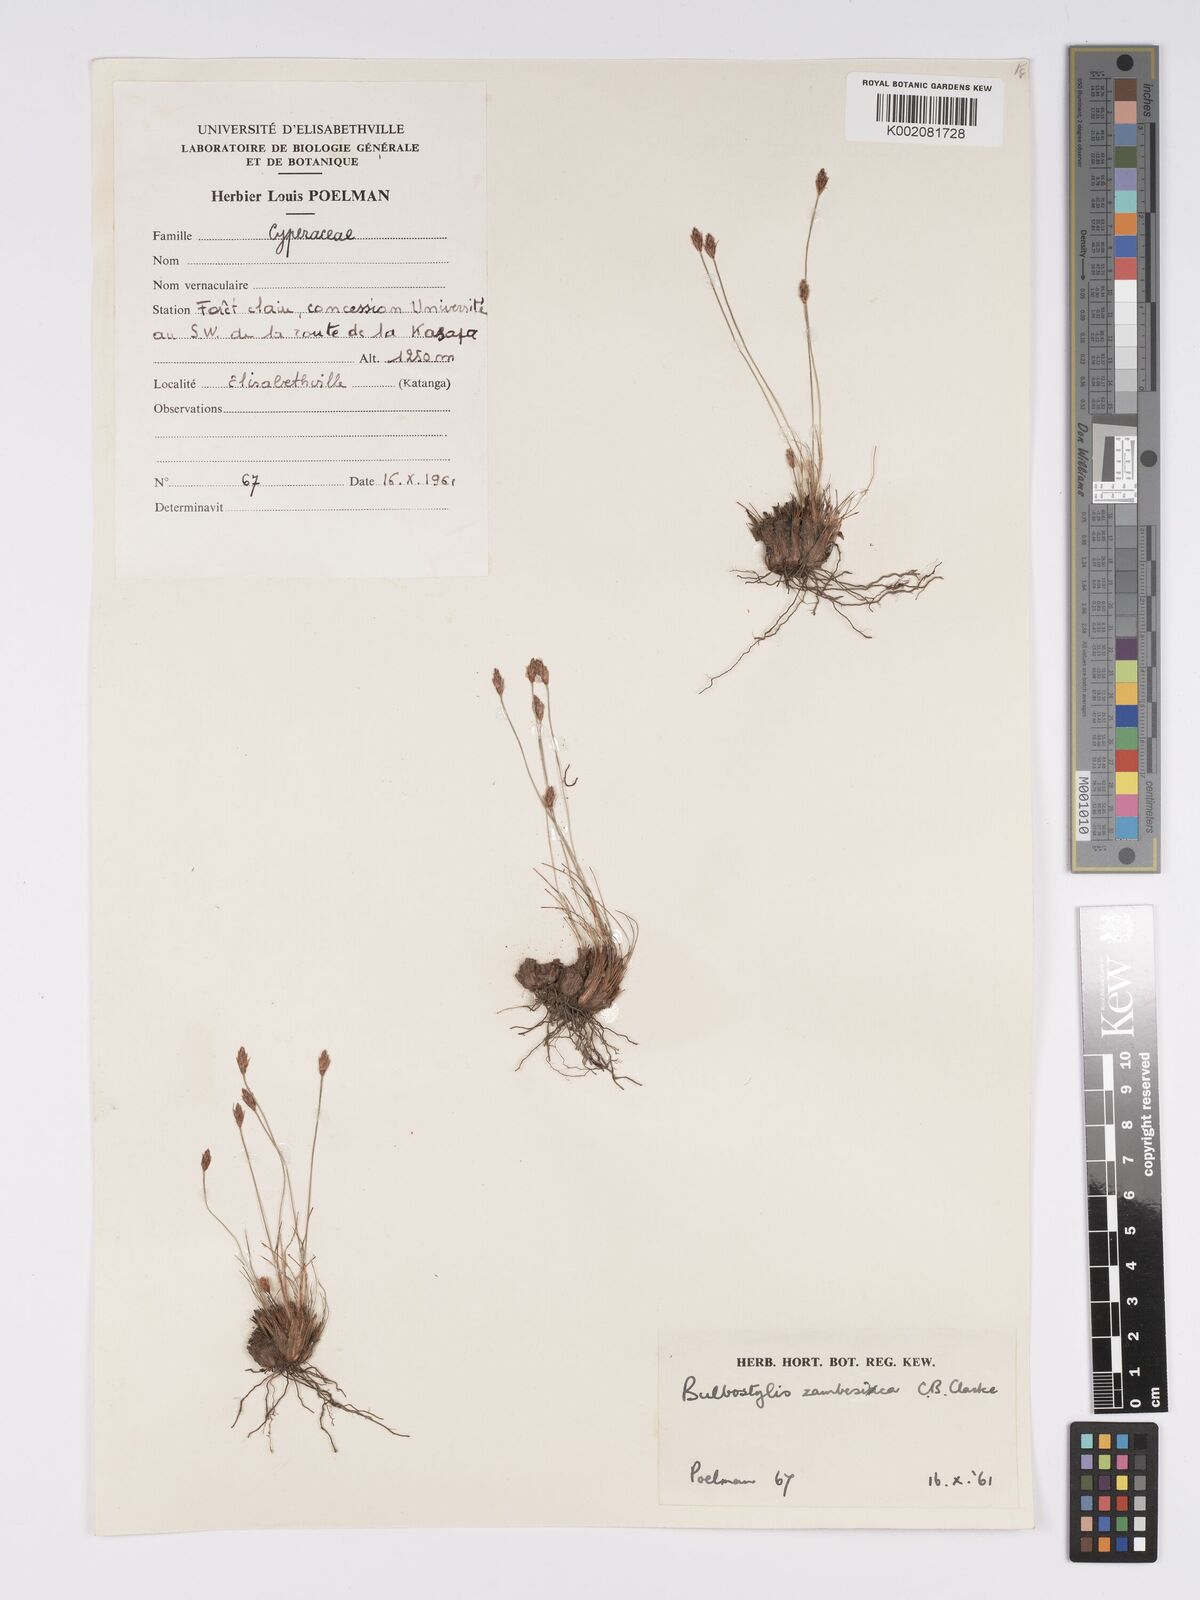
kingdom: Plantae
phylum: Tracheophyta
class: Liliopsida
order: Poales
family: Cyperaceae
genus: Bulbostylis
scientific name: Bulbostylis macra
